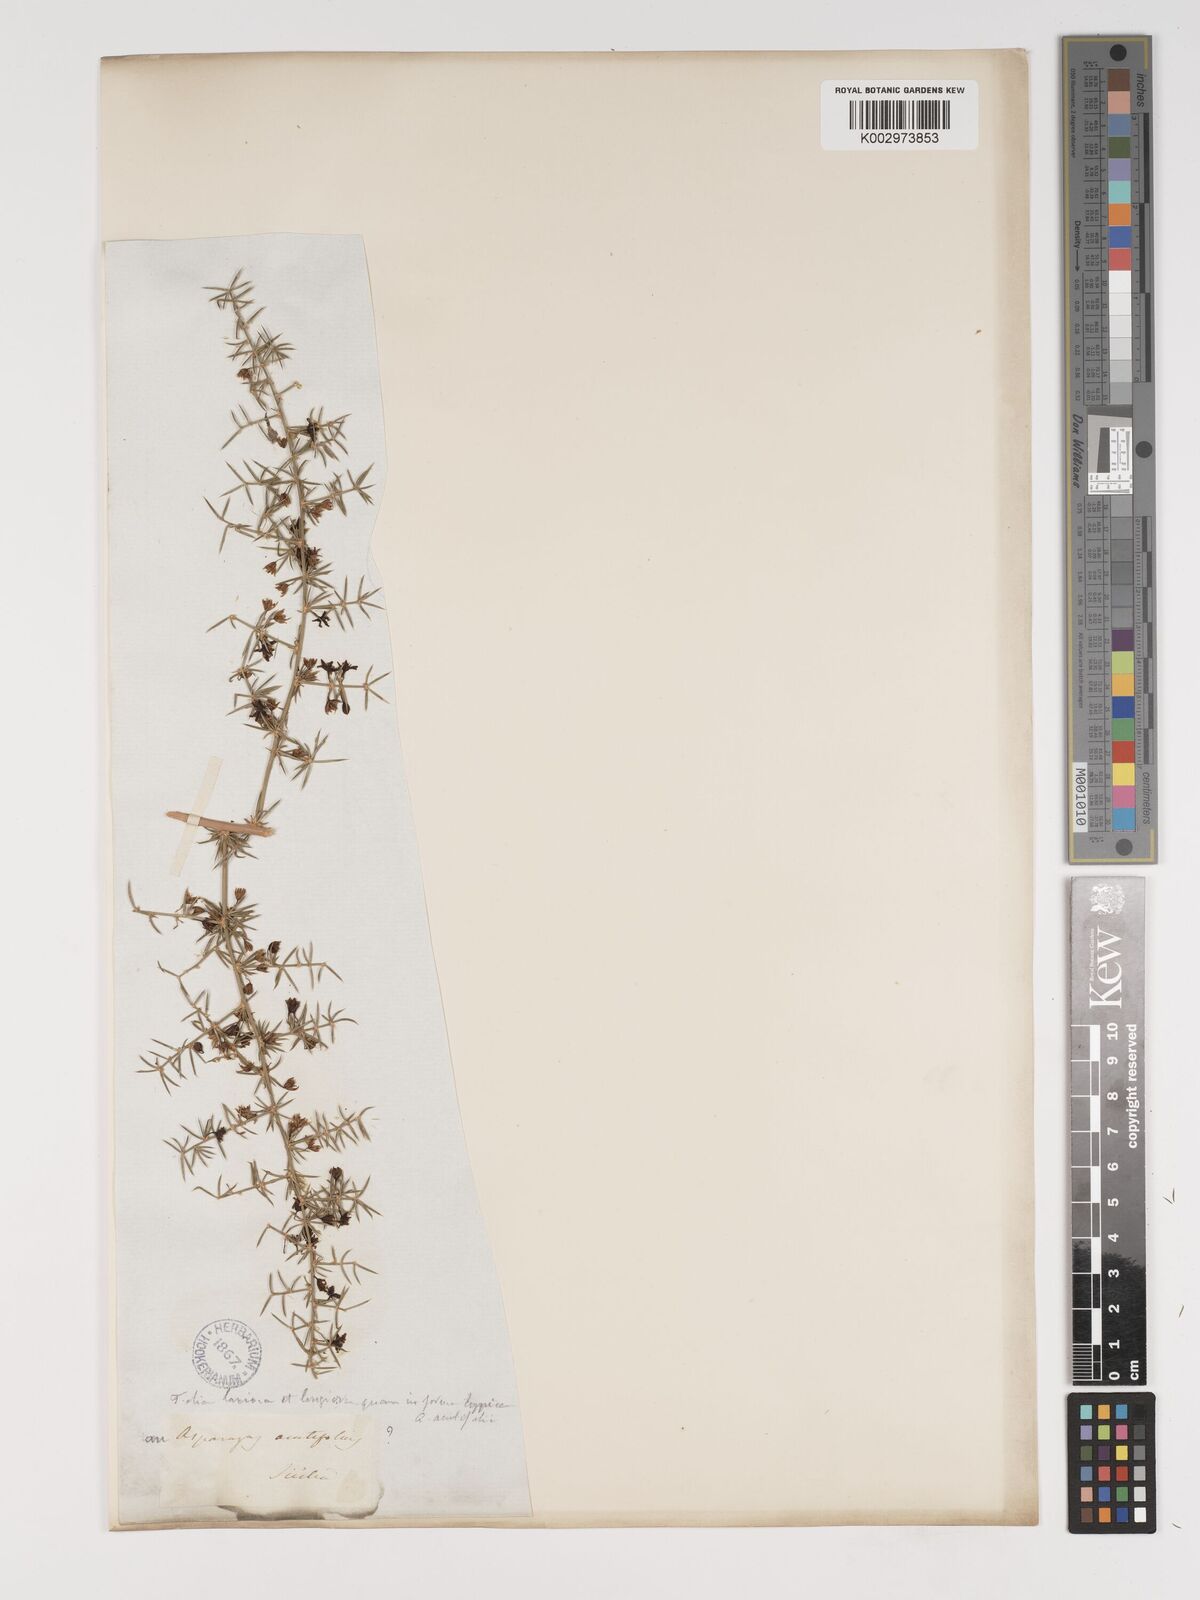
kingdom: Plantae
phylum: Tracheophyta
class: Liliopsida
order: Asparagales
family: Asparagaceae
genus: Asparagus
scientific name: Asparagus acutifolius
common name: Wild asparagus
